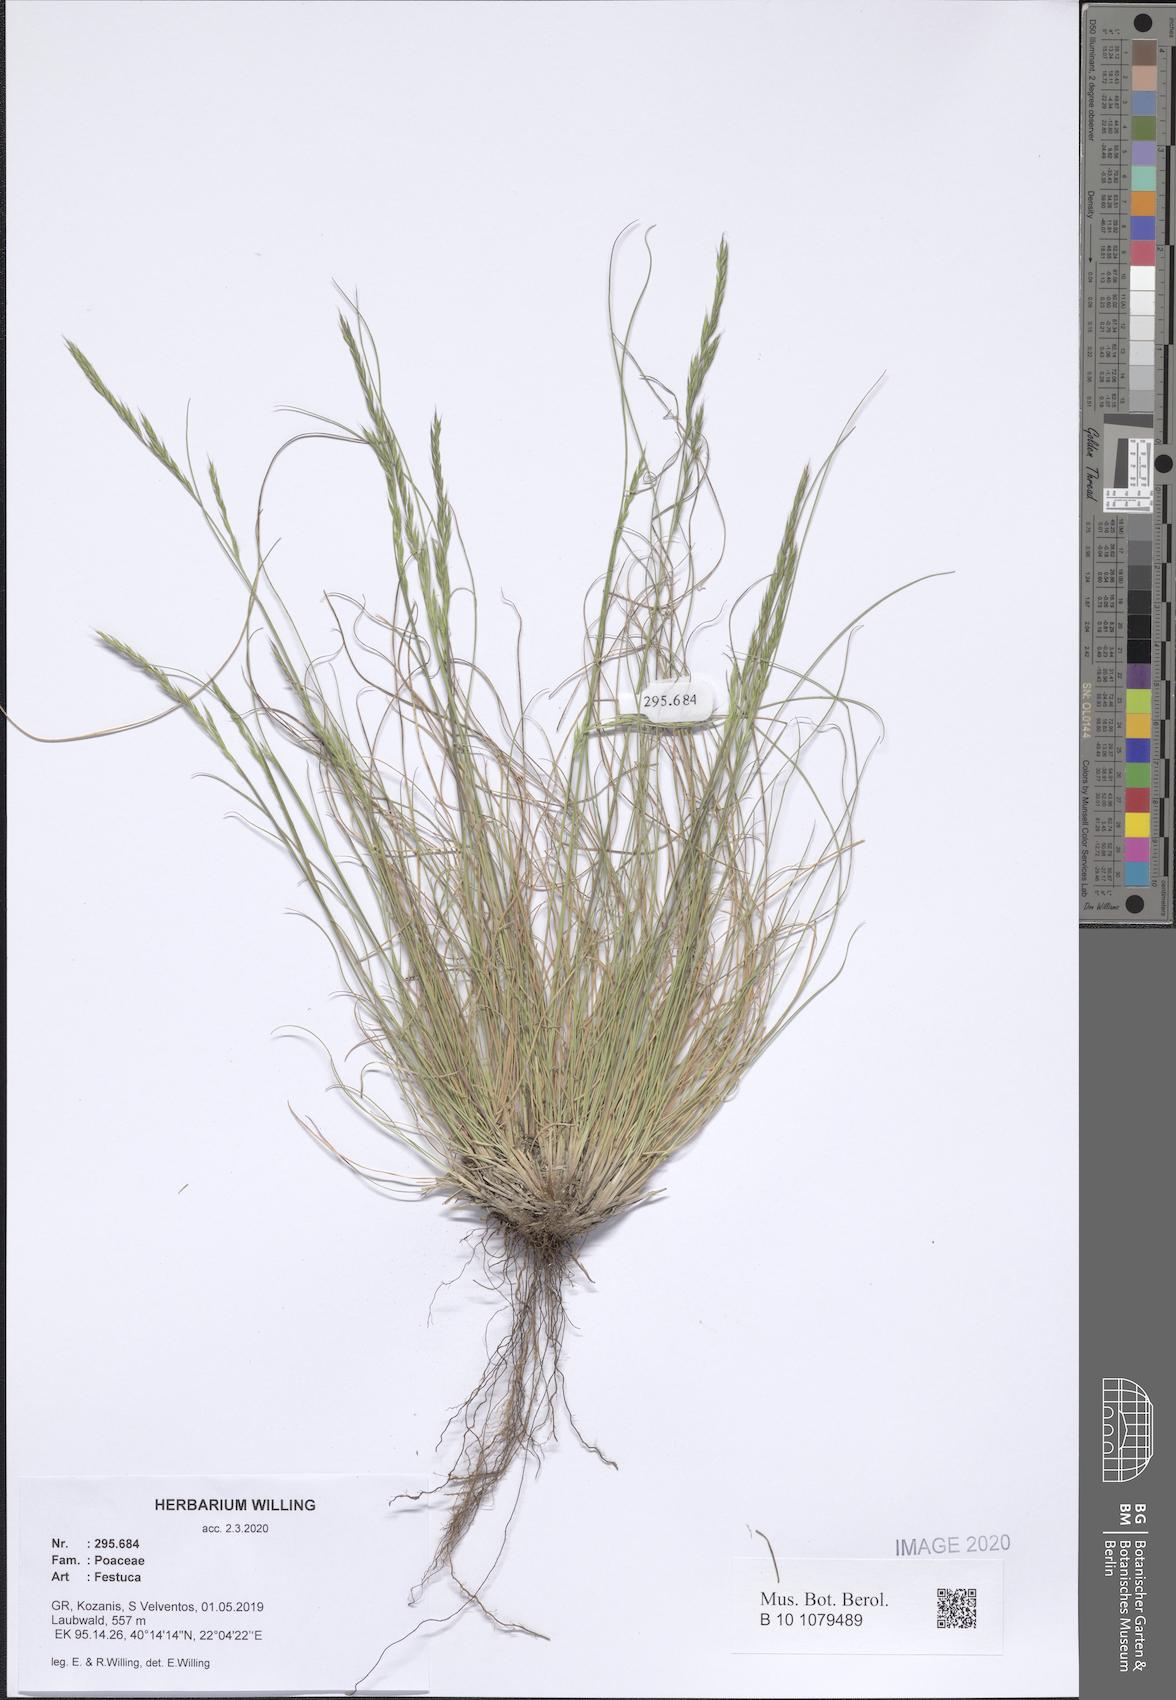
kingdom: Plantae
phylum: Tracheophyta
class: Liliopsida
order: Poales
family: Poaceae
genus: Festuca
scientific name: Festuca
